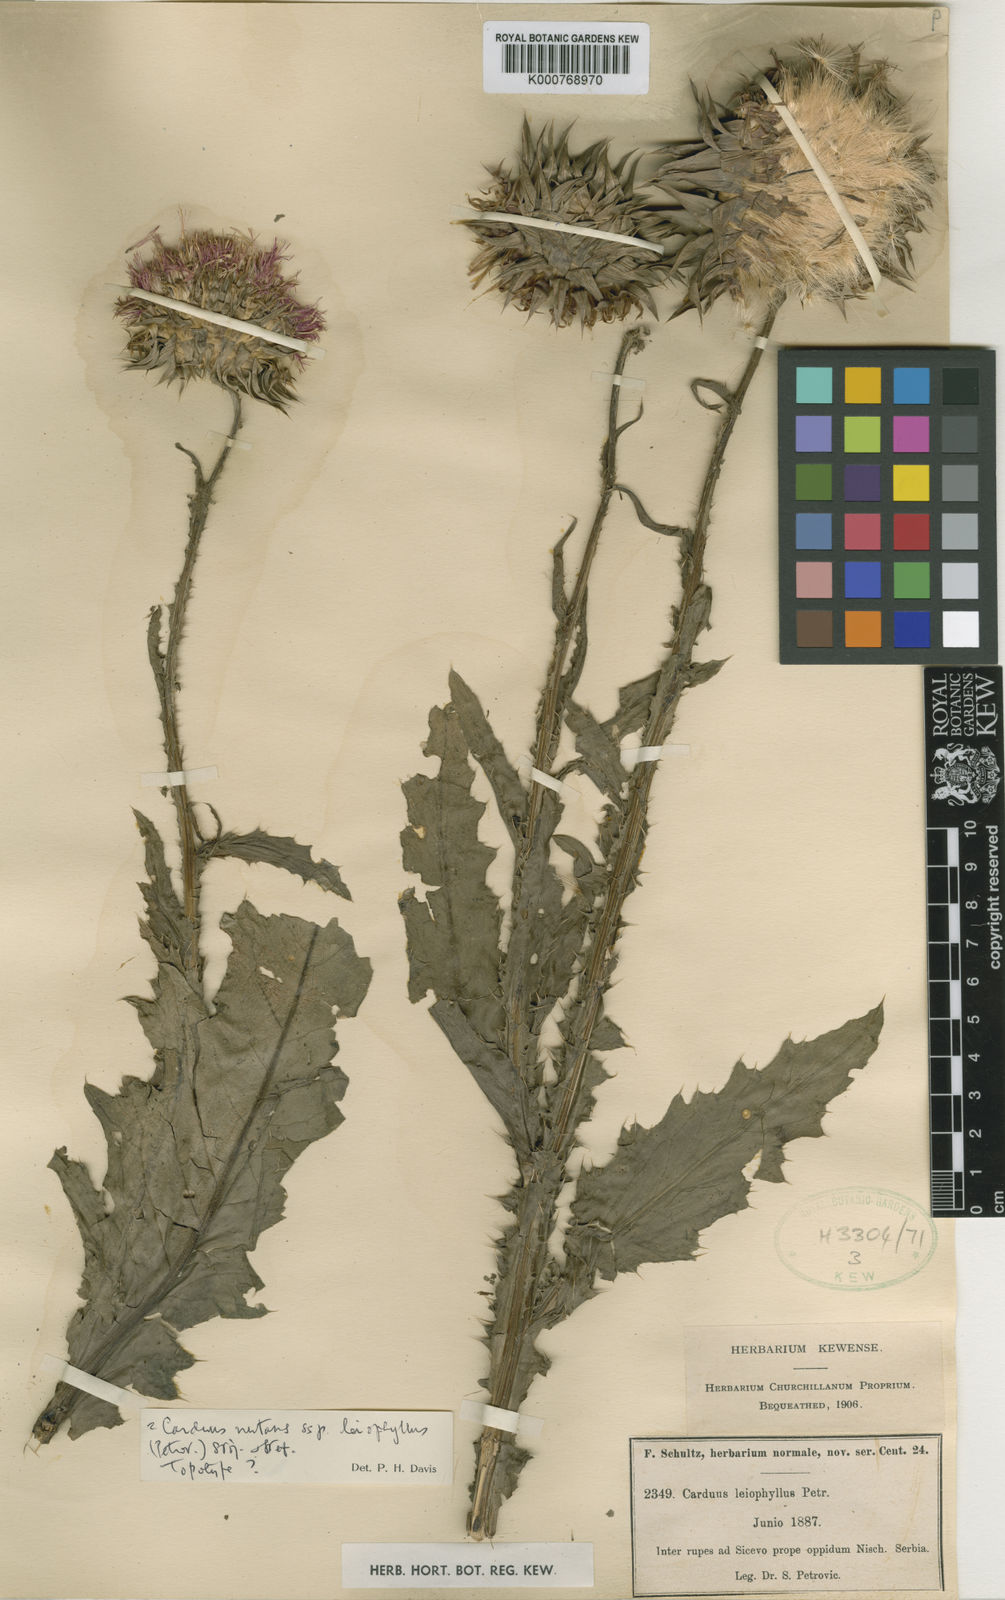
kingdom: Plantae
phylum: Tracheophyta
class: Magnoliopsida
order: Asterales
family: Asteraceae
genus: Carduus
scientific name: Carduus nutans
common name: Musk thistle
